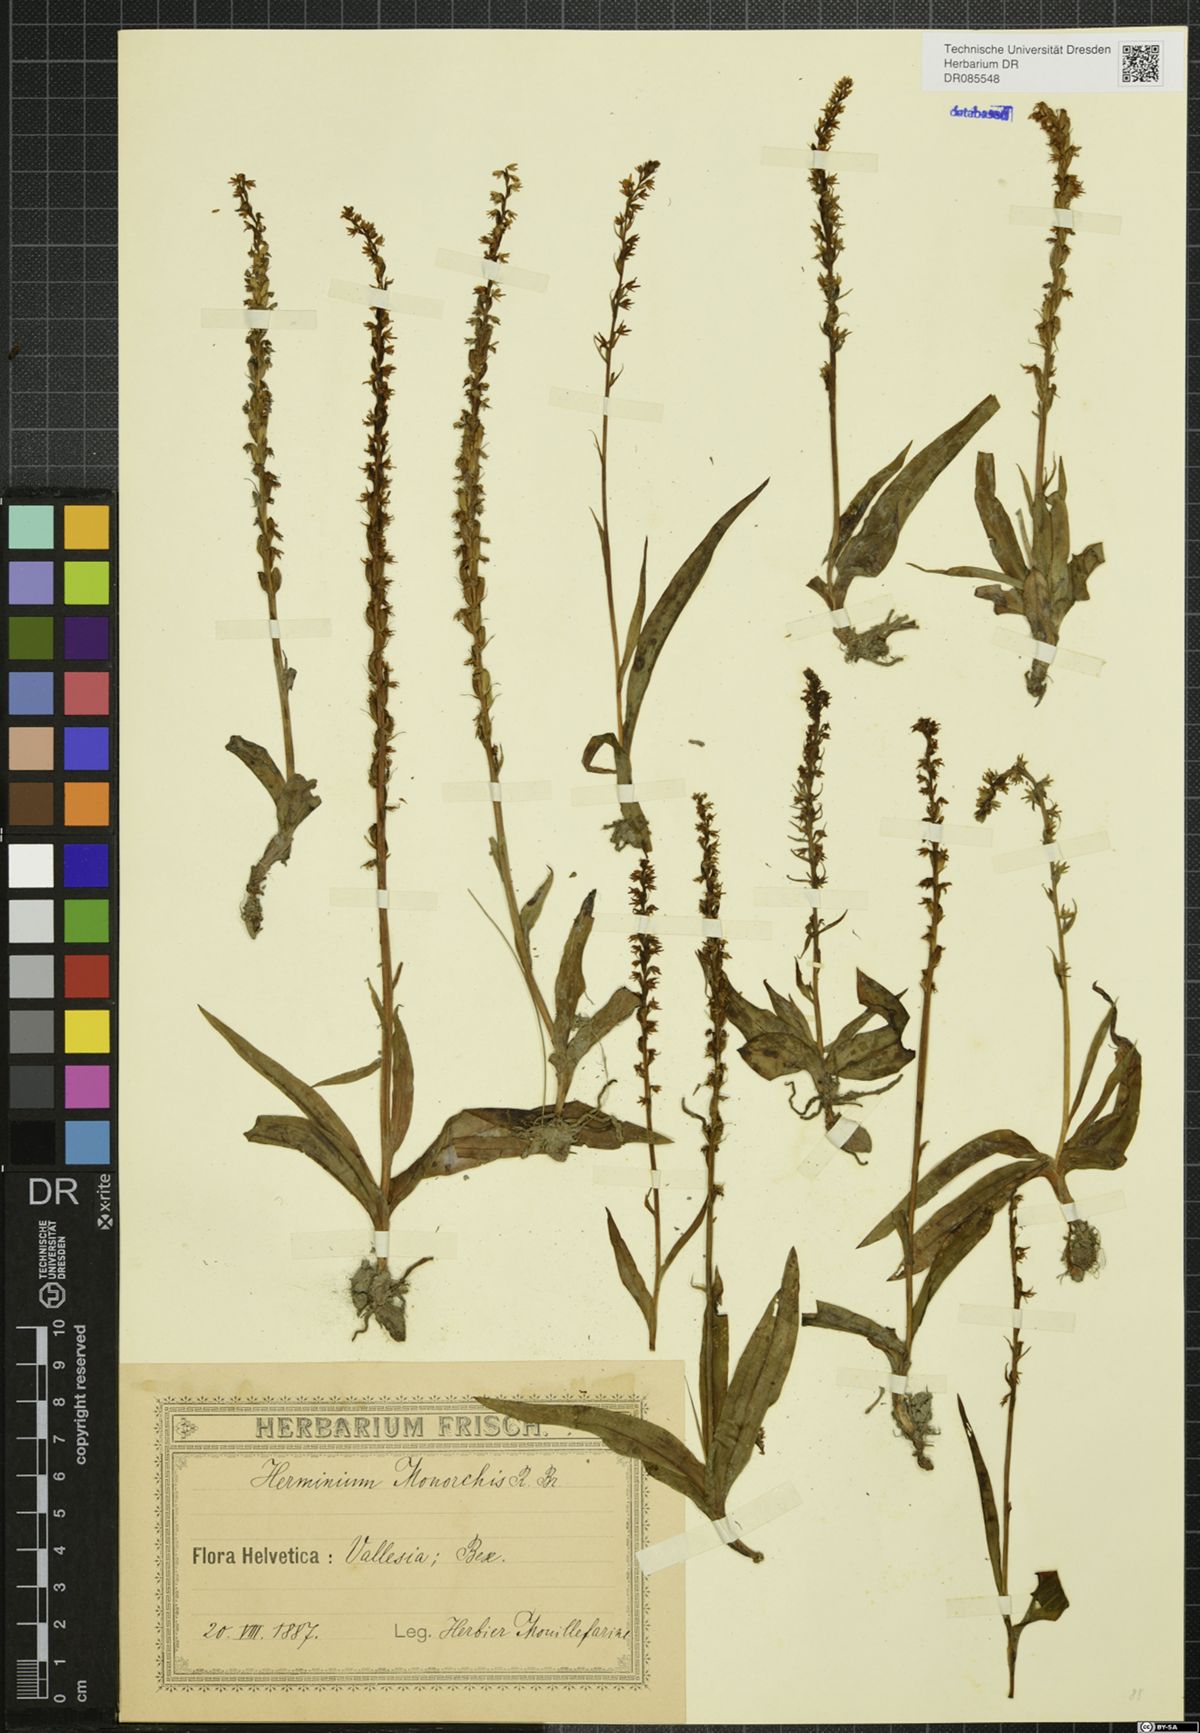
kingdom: Plantae
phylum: Tracheophyta
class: Liliopsida
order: Asparagales
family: Orchidaceae
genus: Herminium
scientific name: Herminium monorchis
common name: Musk orchid
